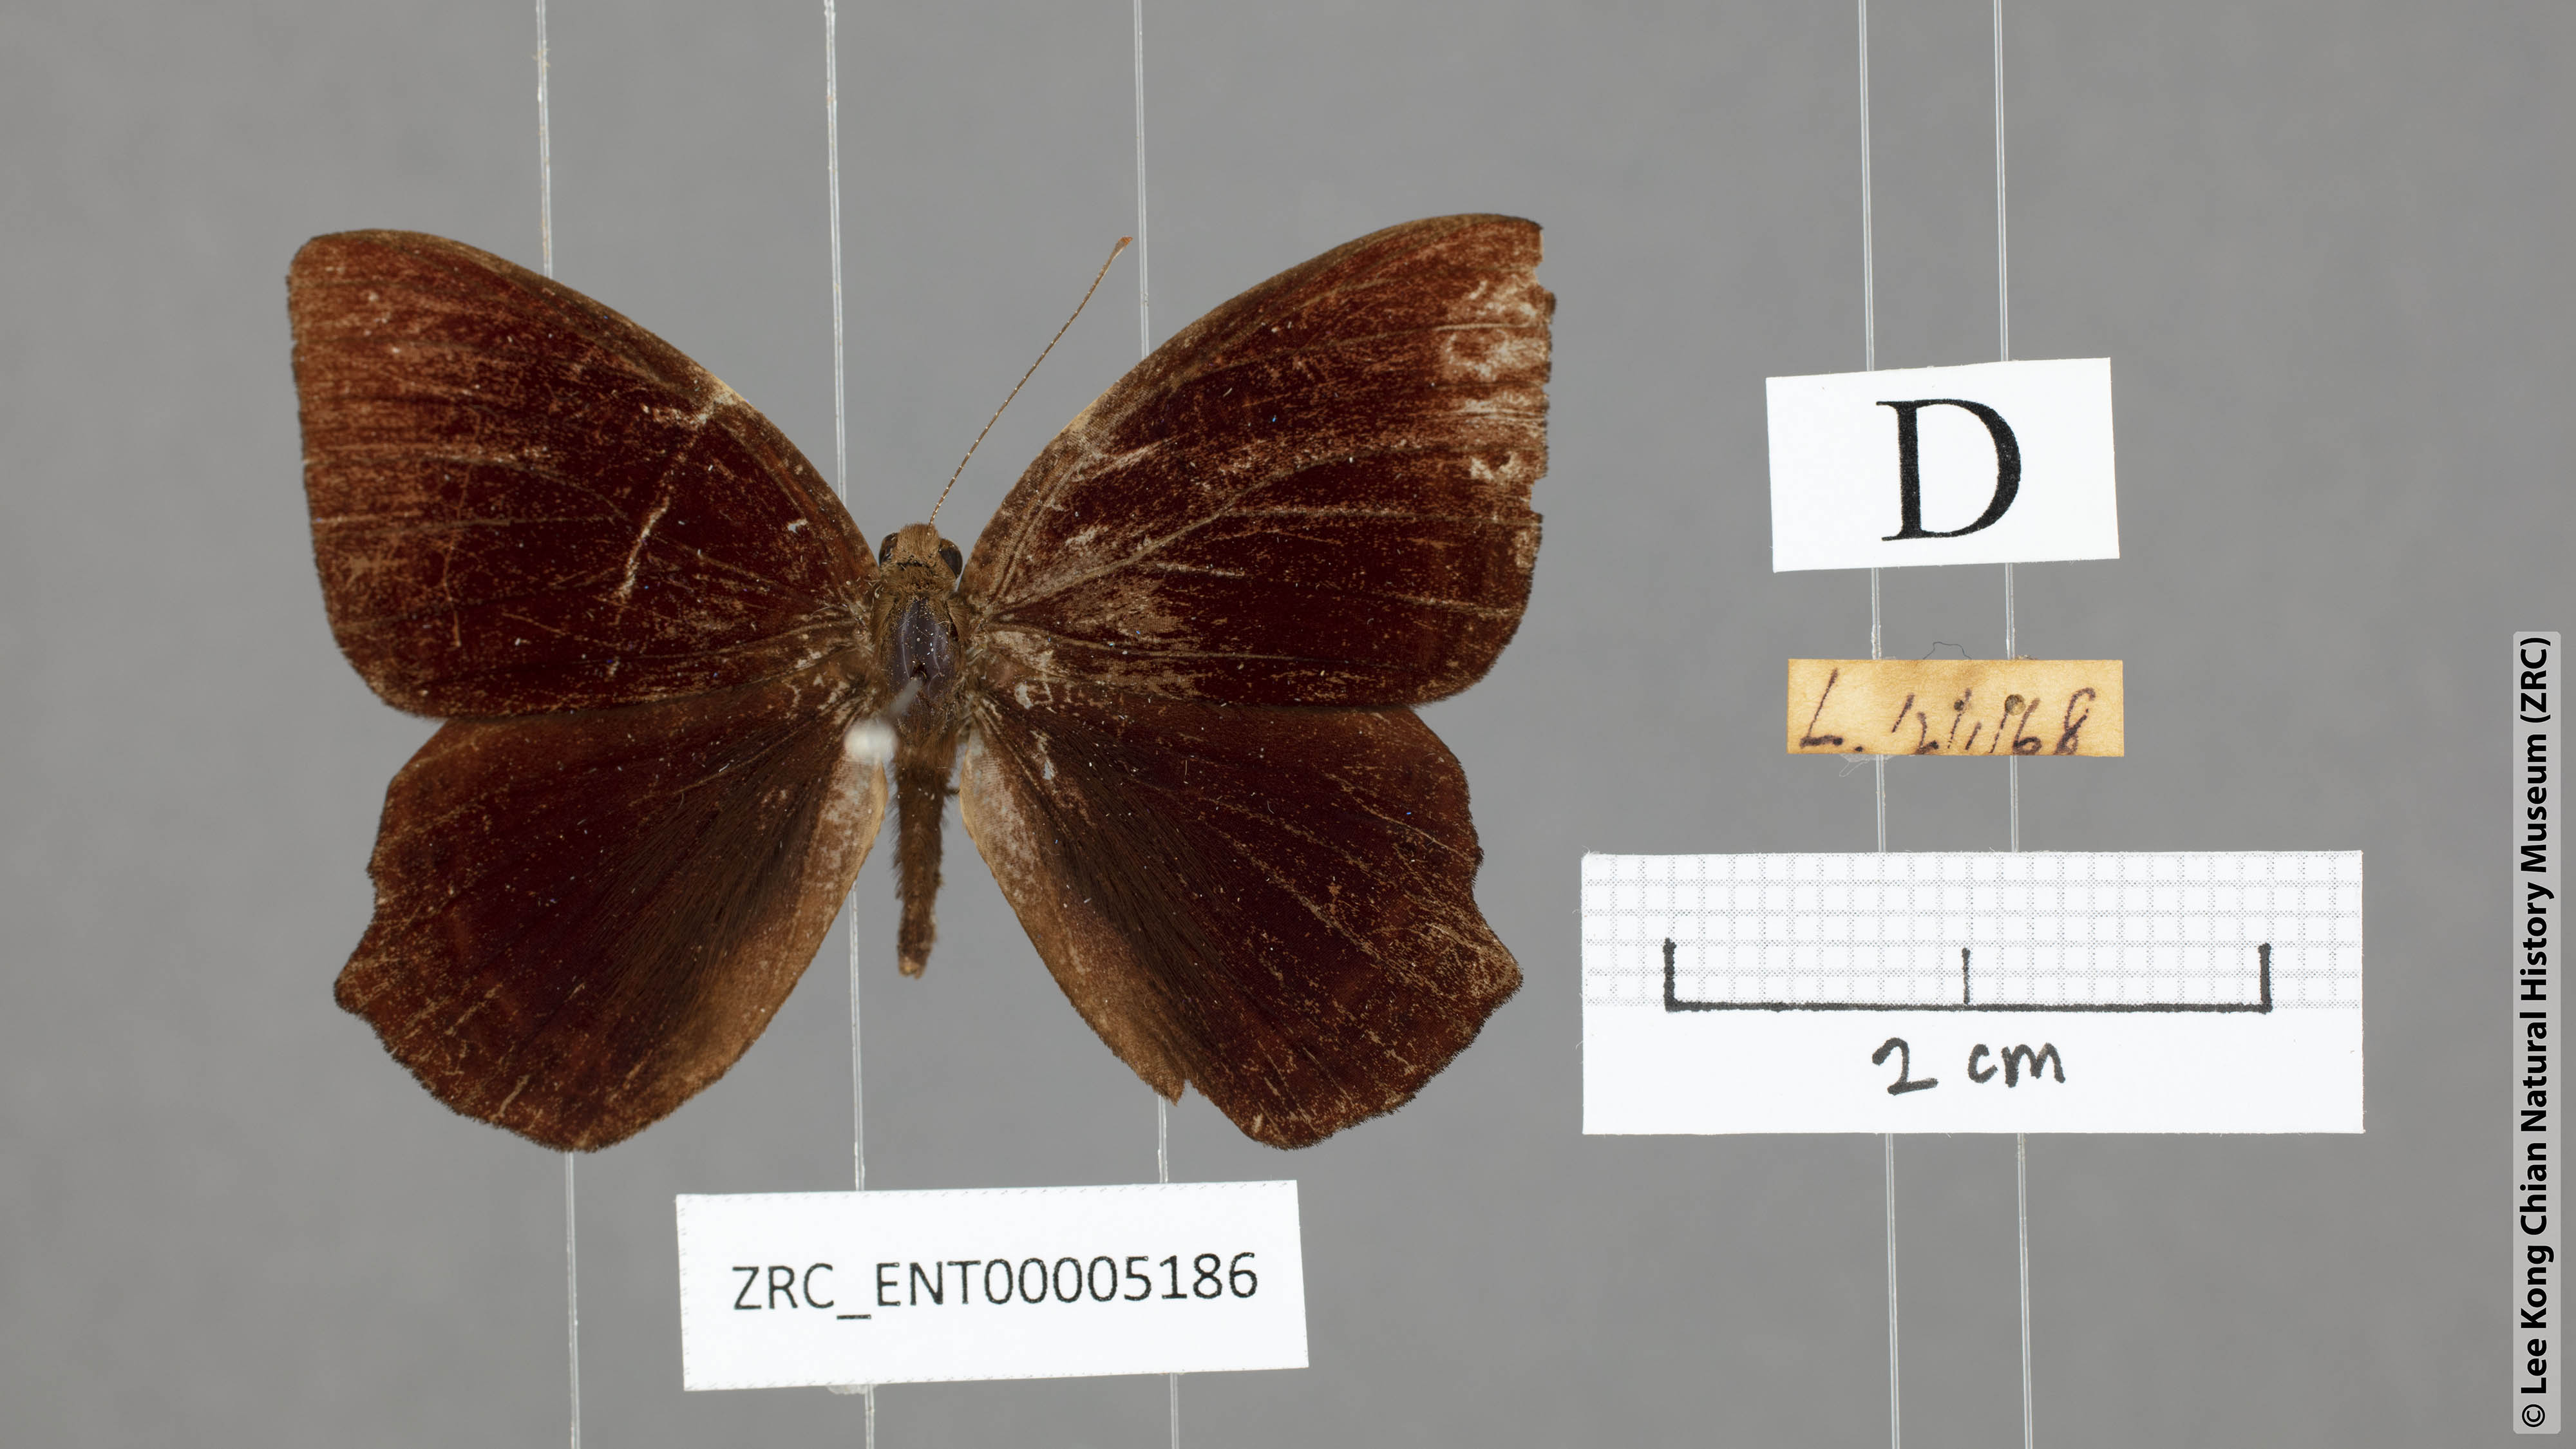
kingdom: Animalia
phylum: Arthropoda
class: Insecta
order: Lepidoptera
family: Lycaenidae
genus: Abisara
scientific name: Abisara saturata
